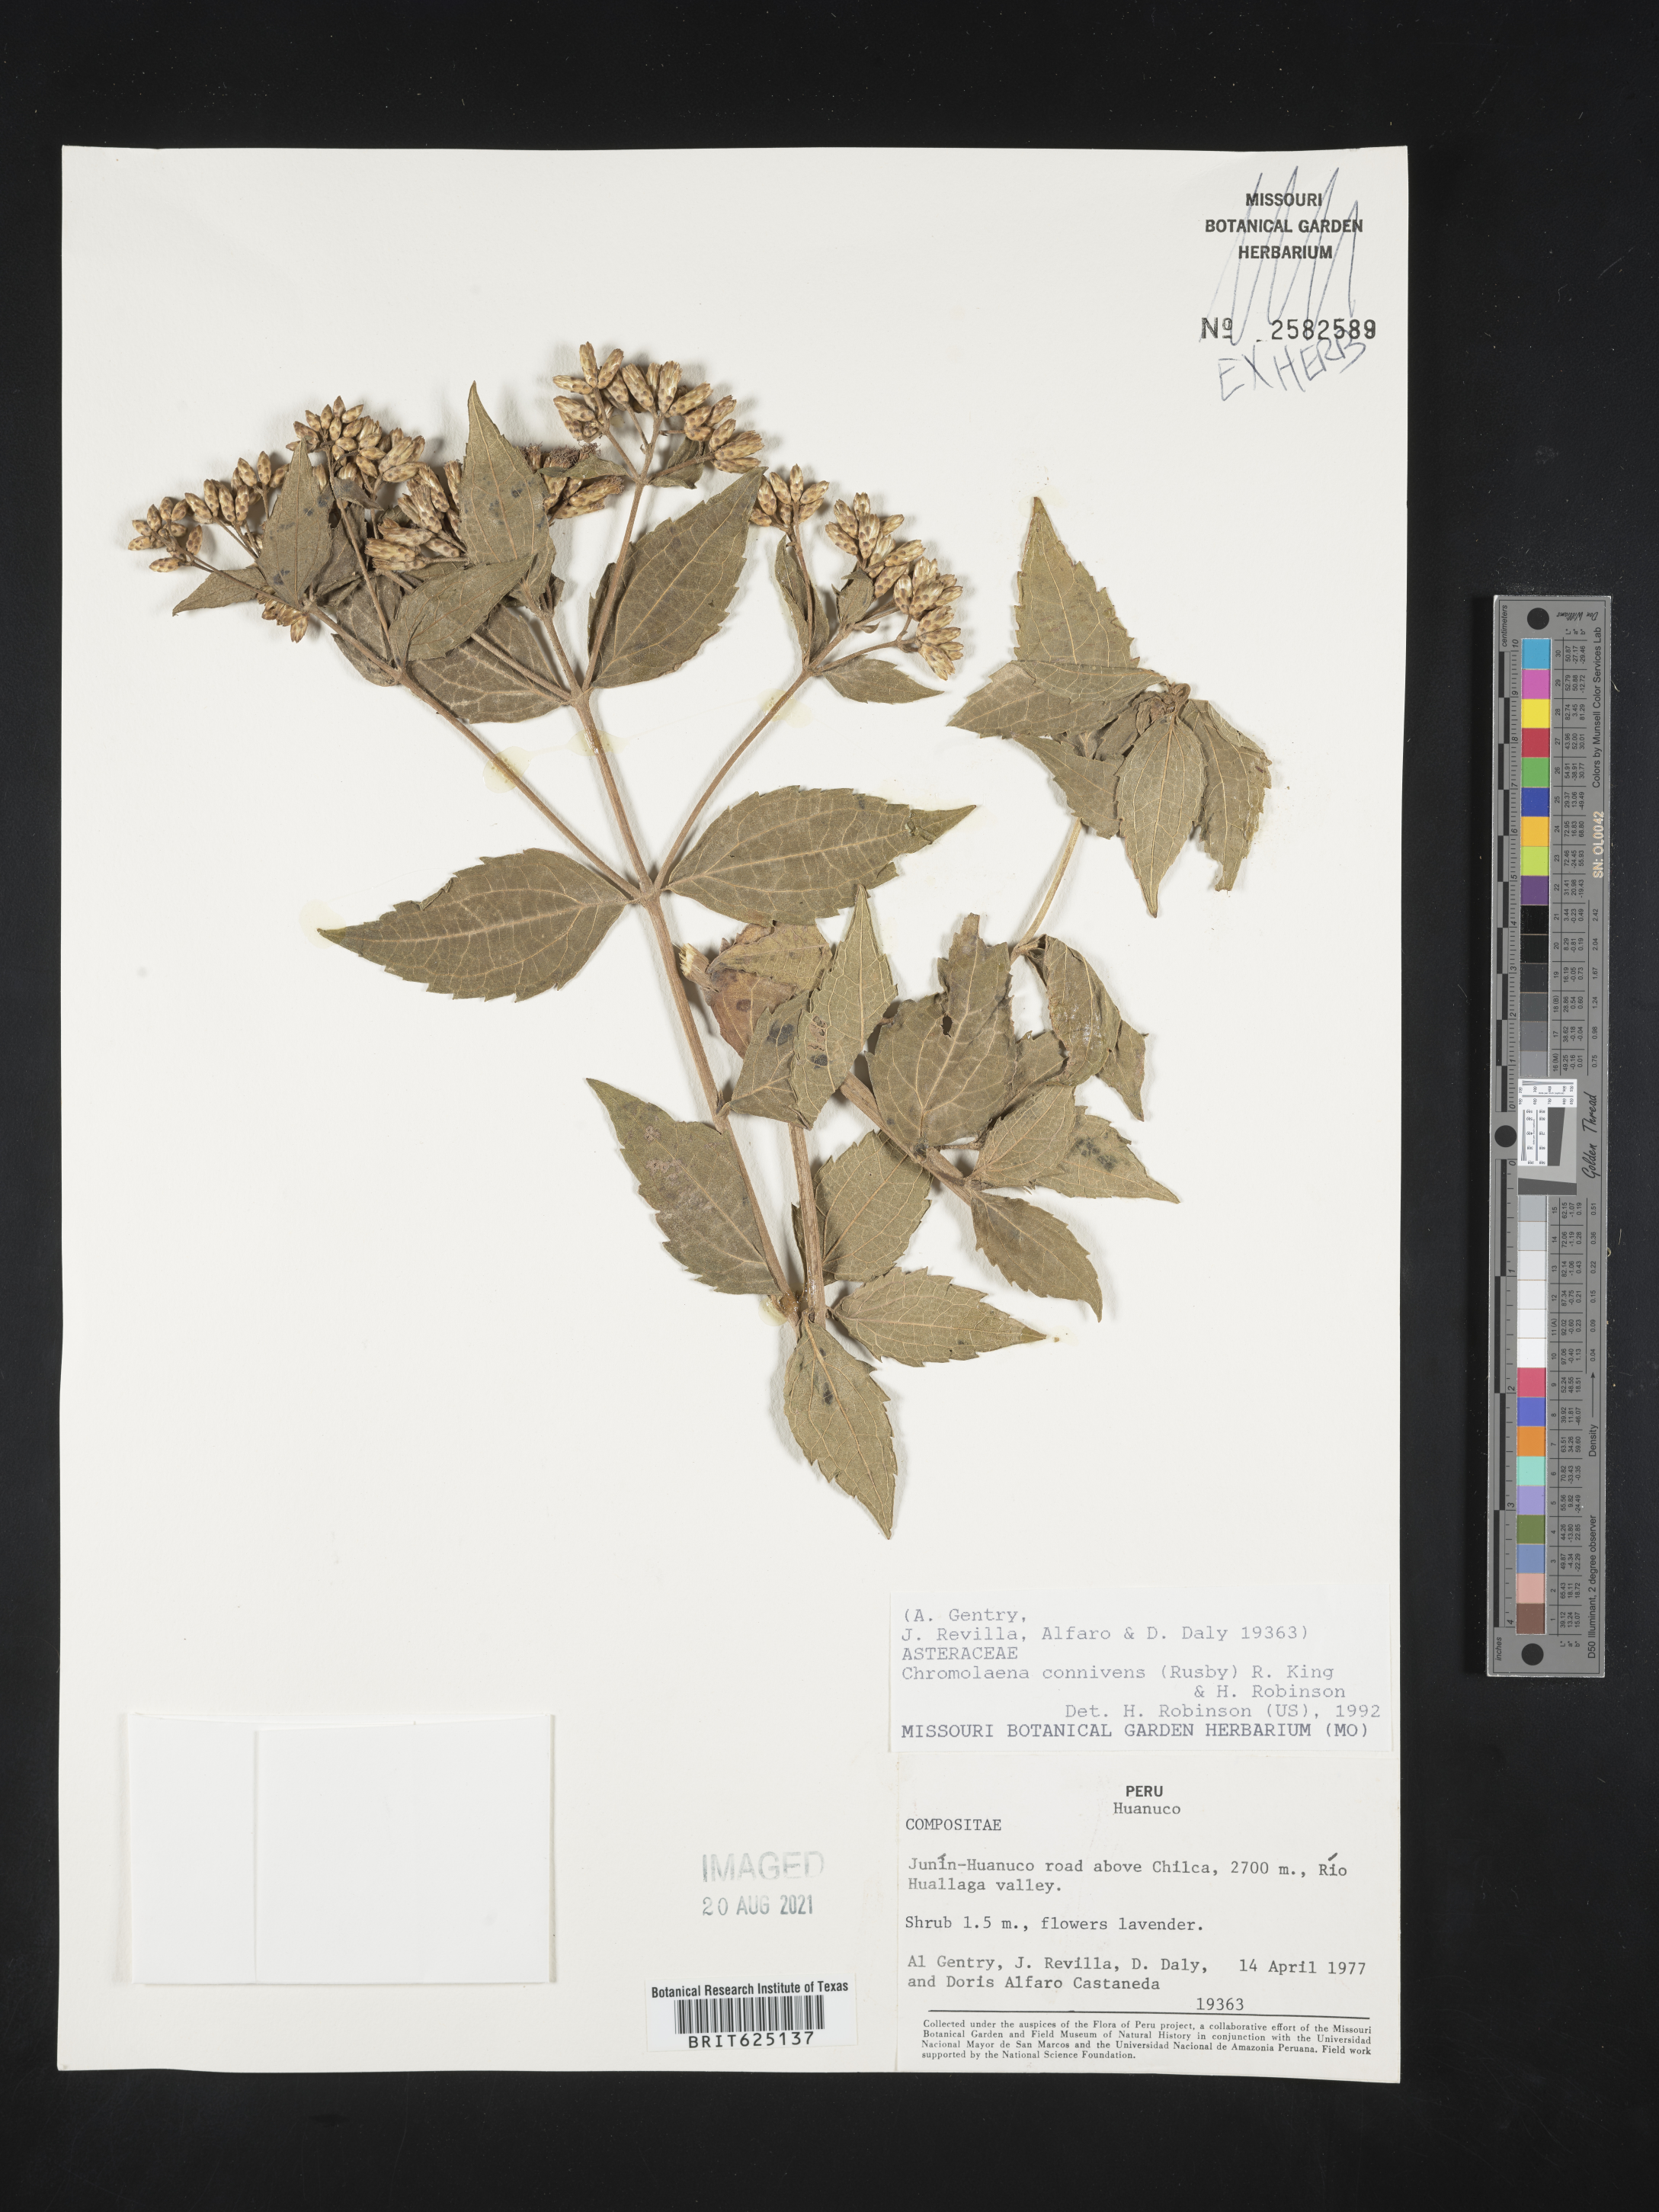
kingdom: Plantae
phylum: Tracheophyta
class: Magnoliopsida
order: Asterales
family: Asteraceae
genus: Chromolaena
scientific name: Chromolaena connivens
